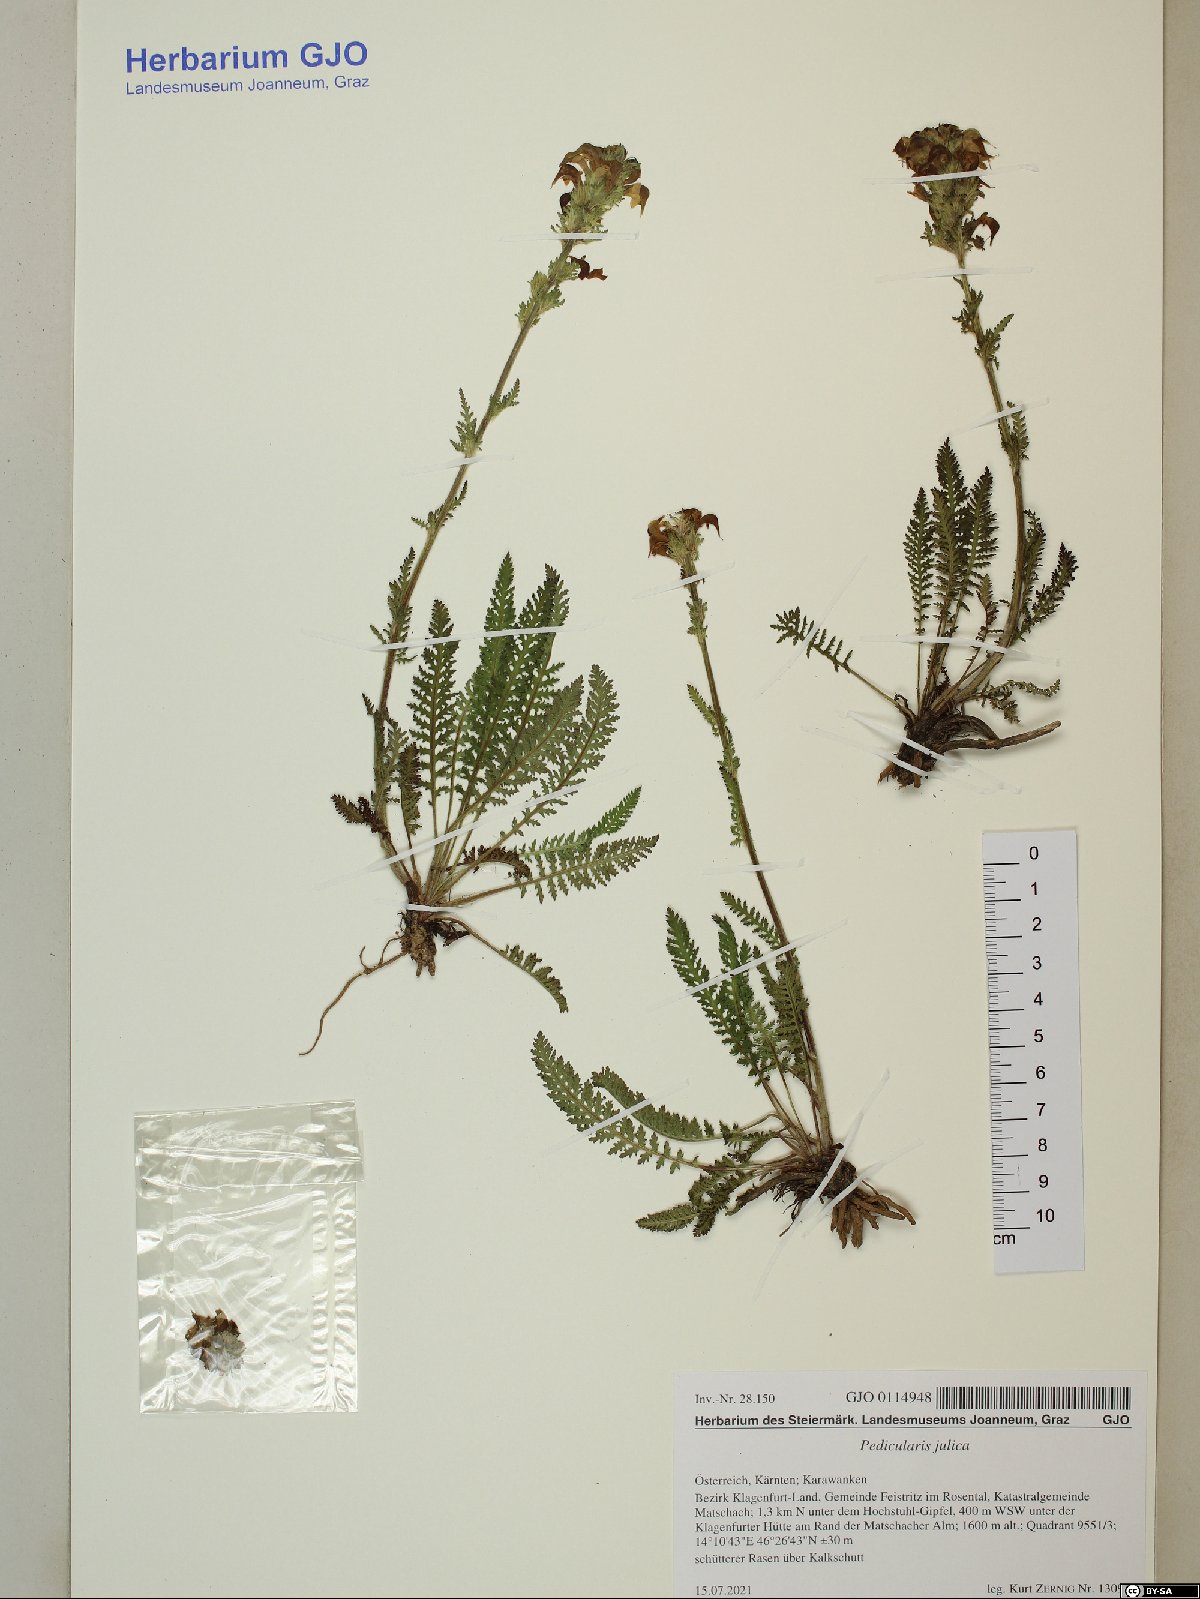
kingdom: Plantae
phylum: Tracheophyta
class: Magnoliopsida
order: Lamiales
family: Orobanchaceae
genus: Pedicularis
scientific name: Pedicularis julica
